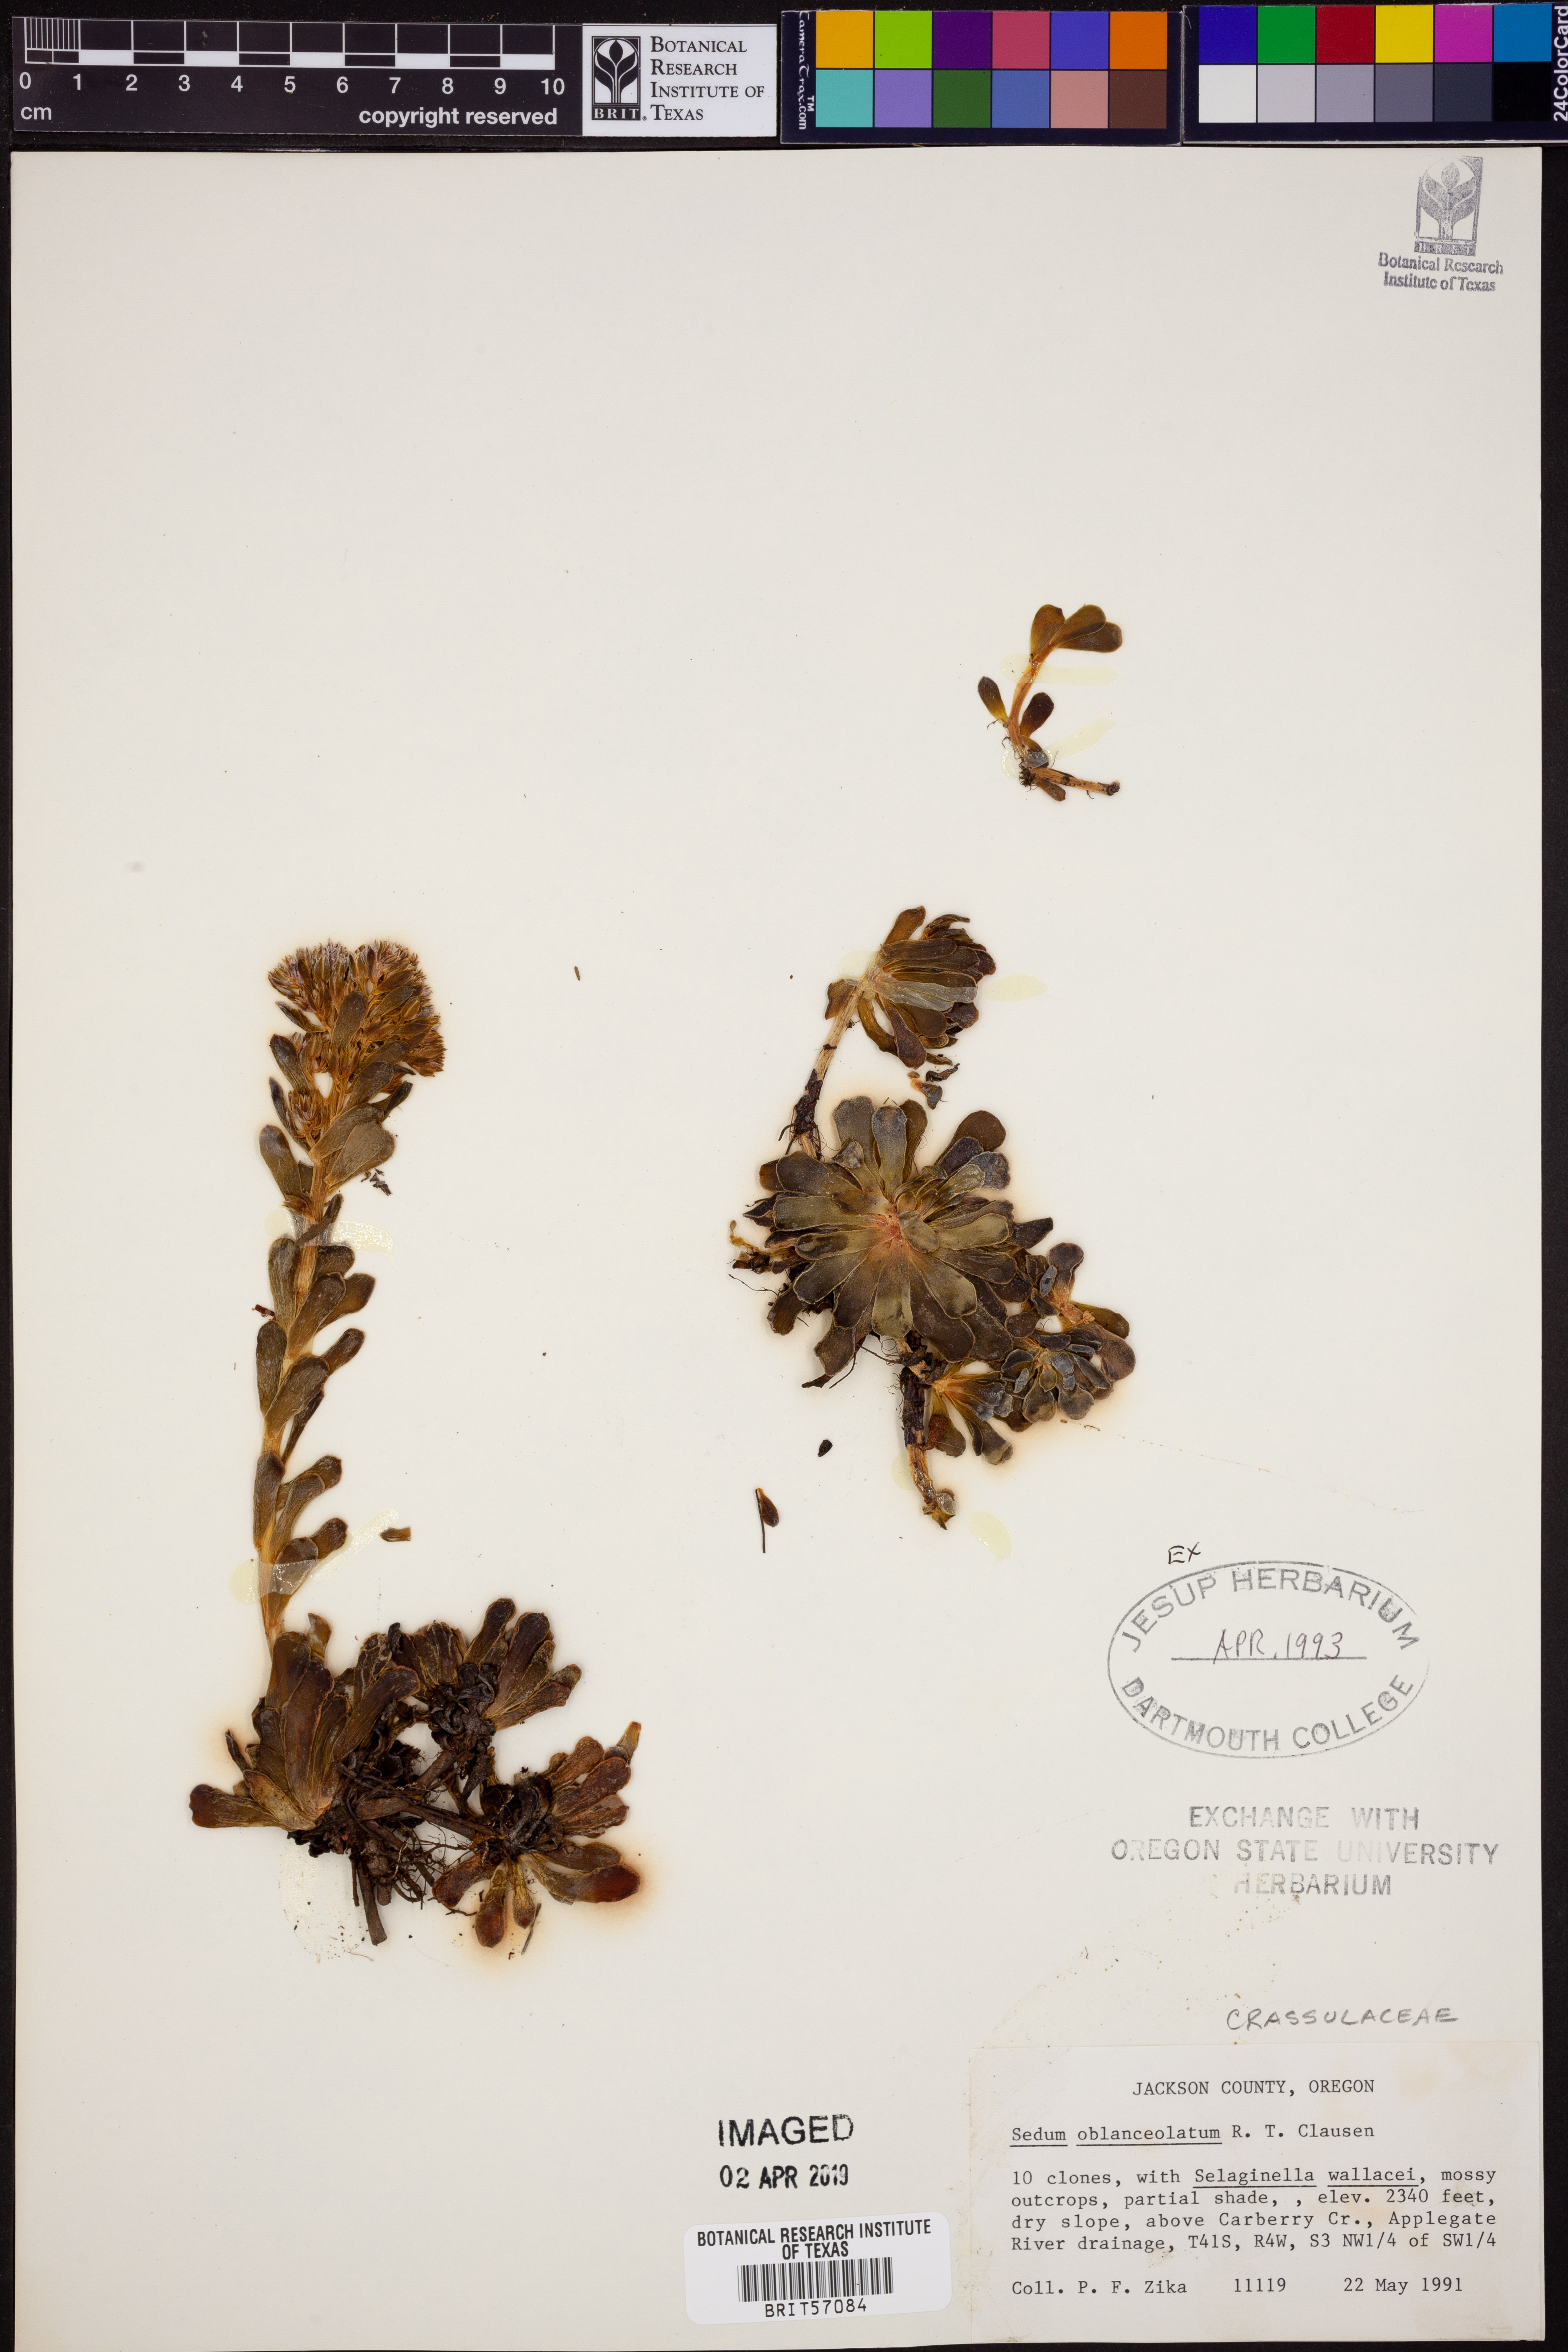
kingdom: Plantae
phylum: Tracheophyta
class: Magnoliopsida
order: Saxifragales
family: Crassulaceae
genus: Sedum
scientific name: Sedum oblanceolatum
